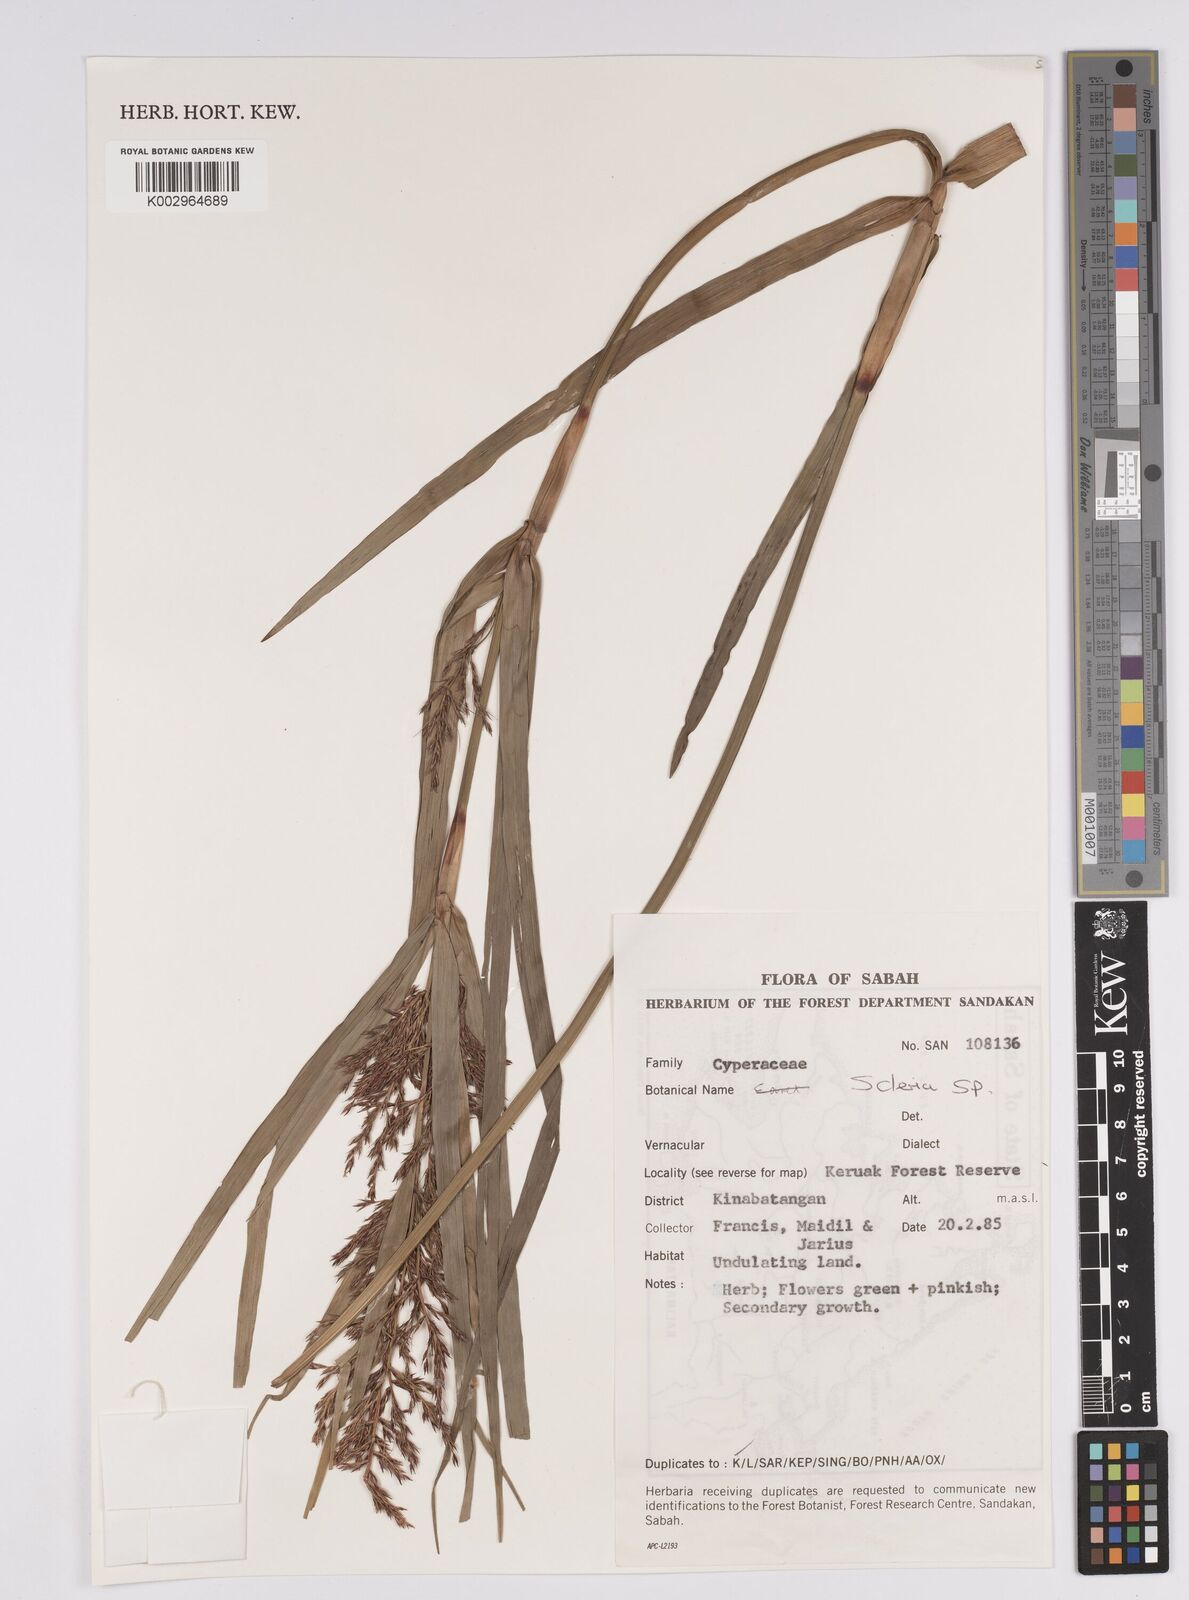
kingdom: Plantae
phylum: Tracheophyta
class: Liliopsida
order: Poales
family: Cyperaceae
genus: Scleria
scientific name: Scleria
